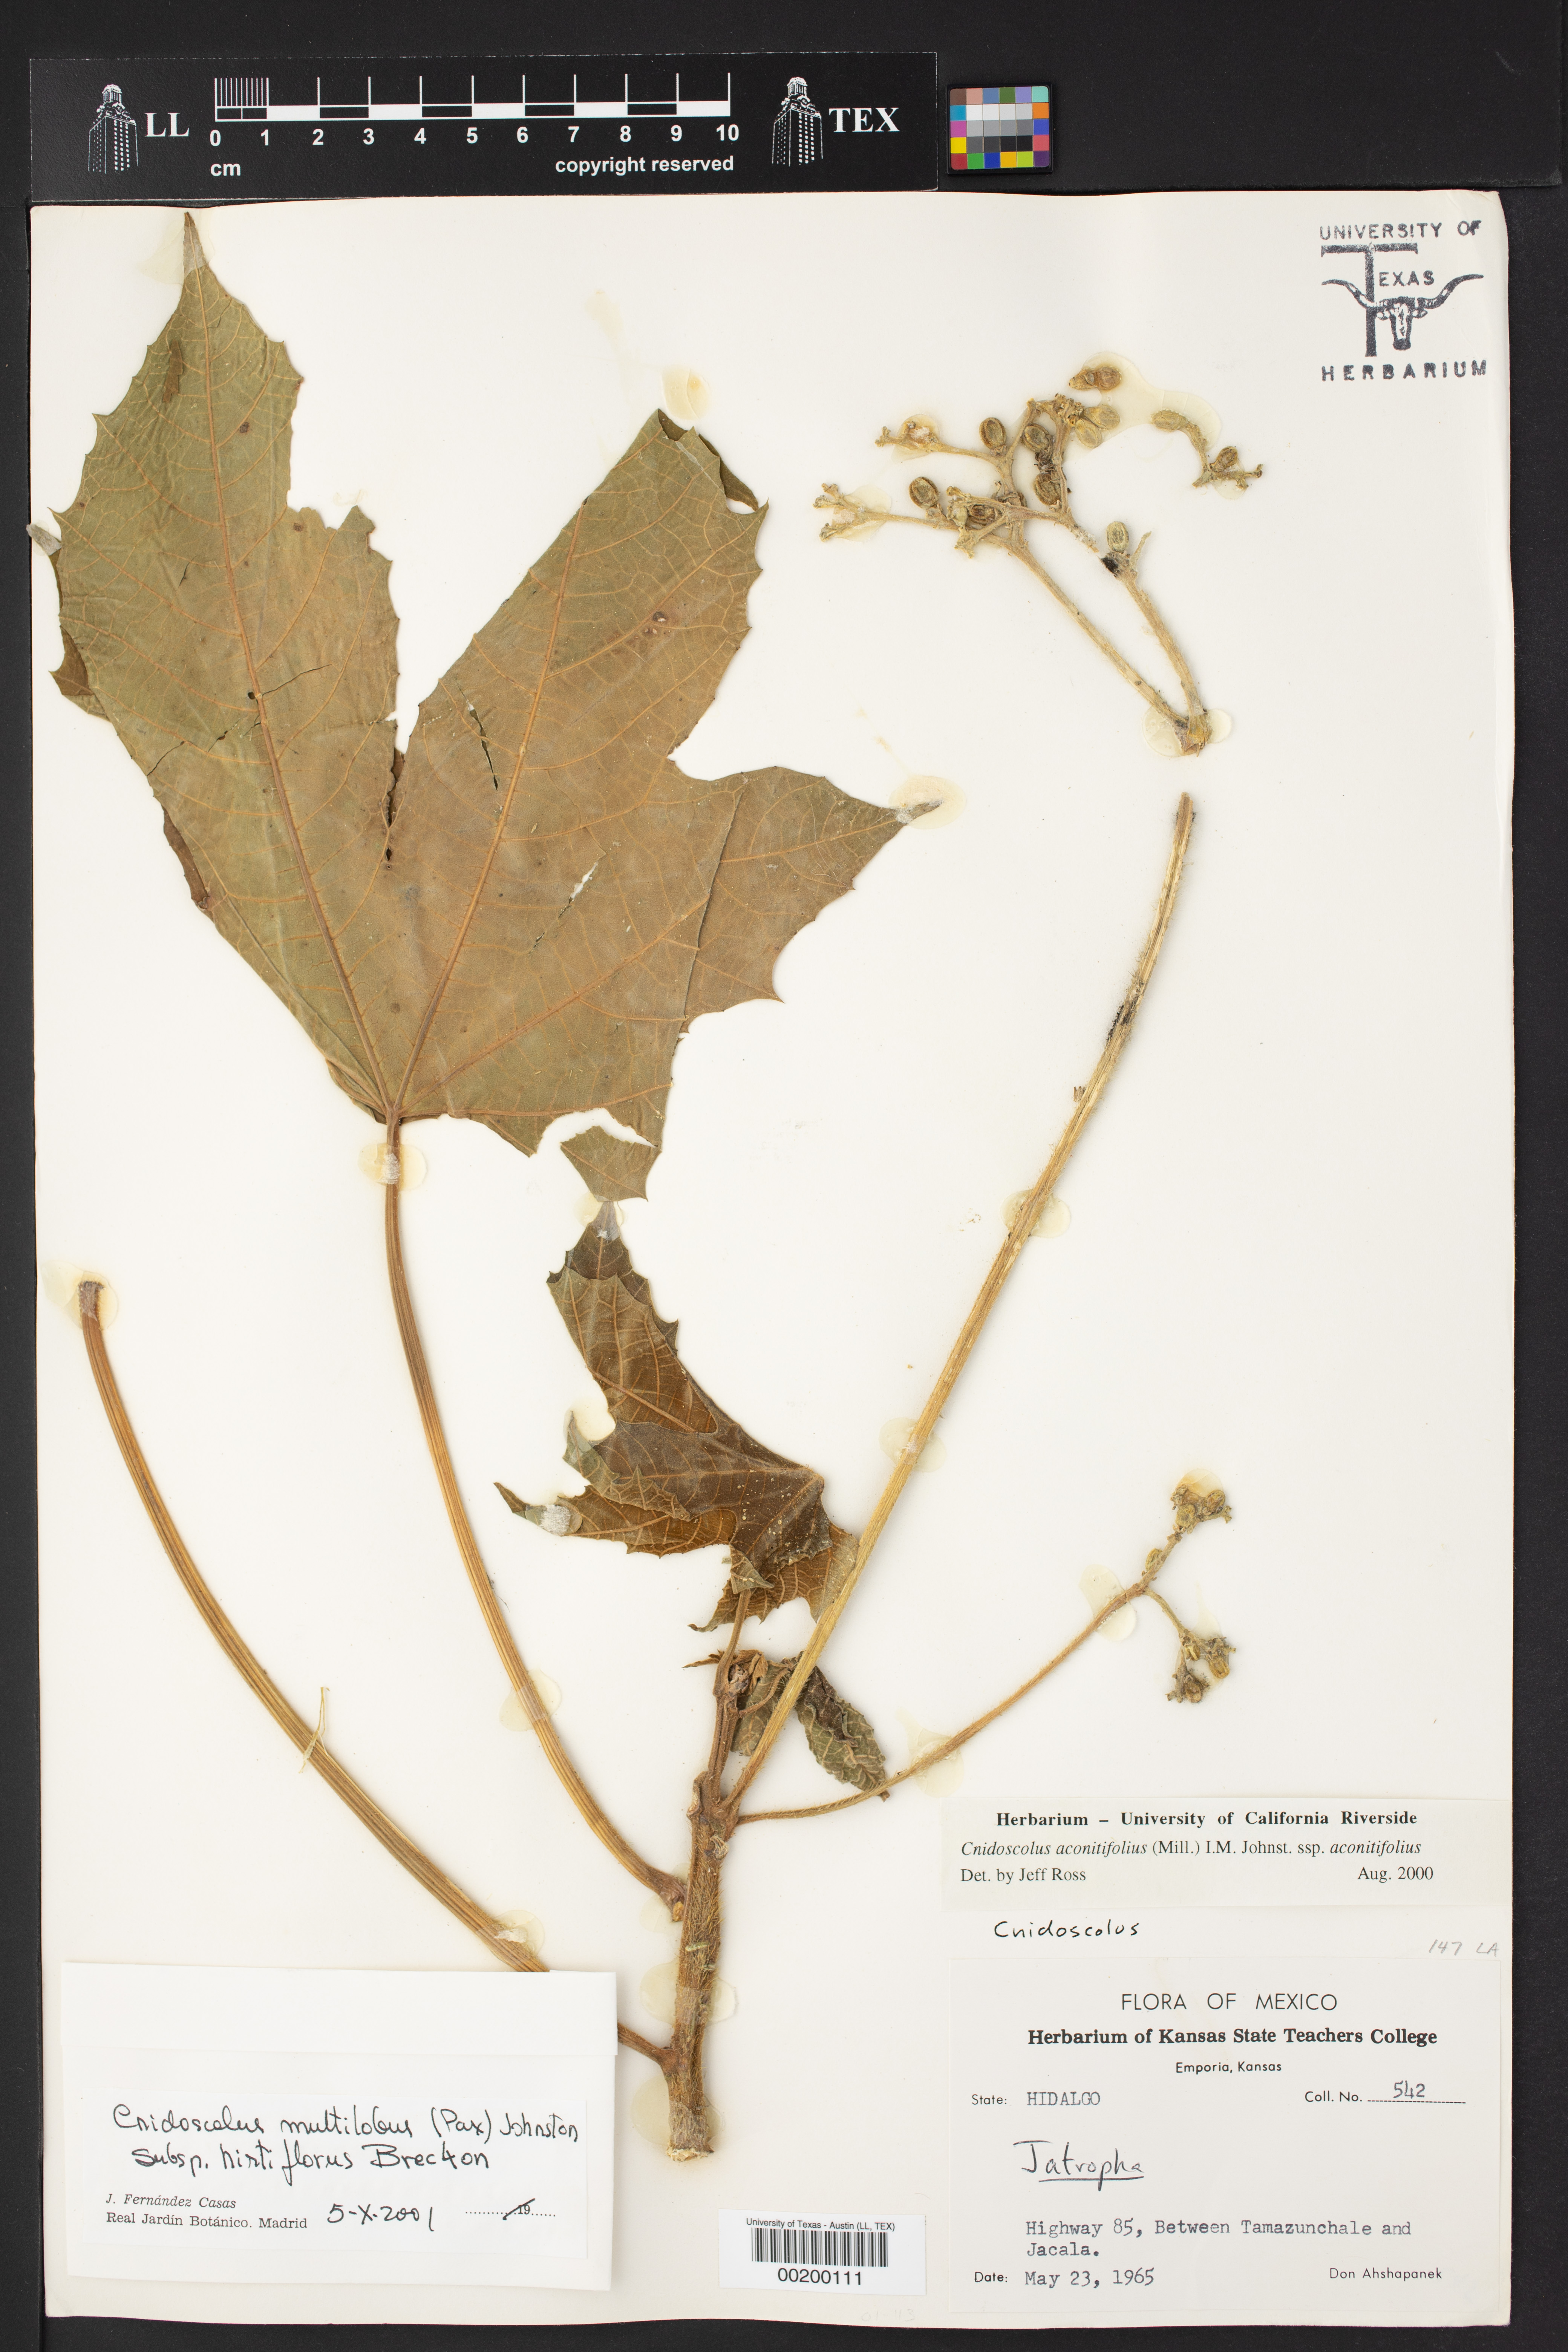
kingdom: Plantae
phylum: Tracheophyta
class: Magnoliopsida
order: Malpighiales
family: Euphorbiaceae
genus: Cnidoscolus
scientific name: Cnidoscolus multilobus
